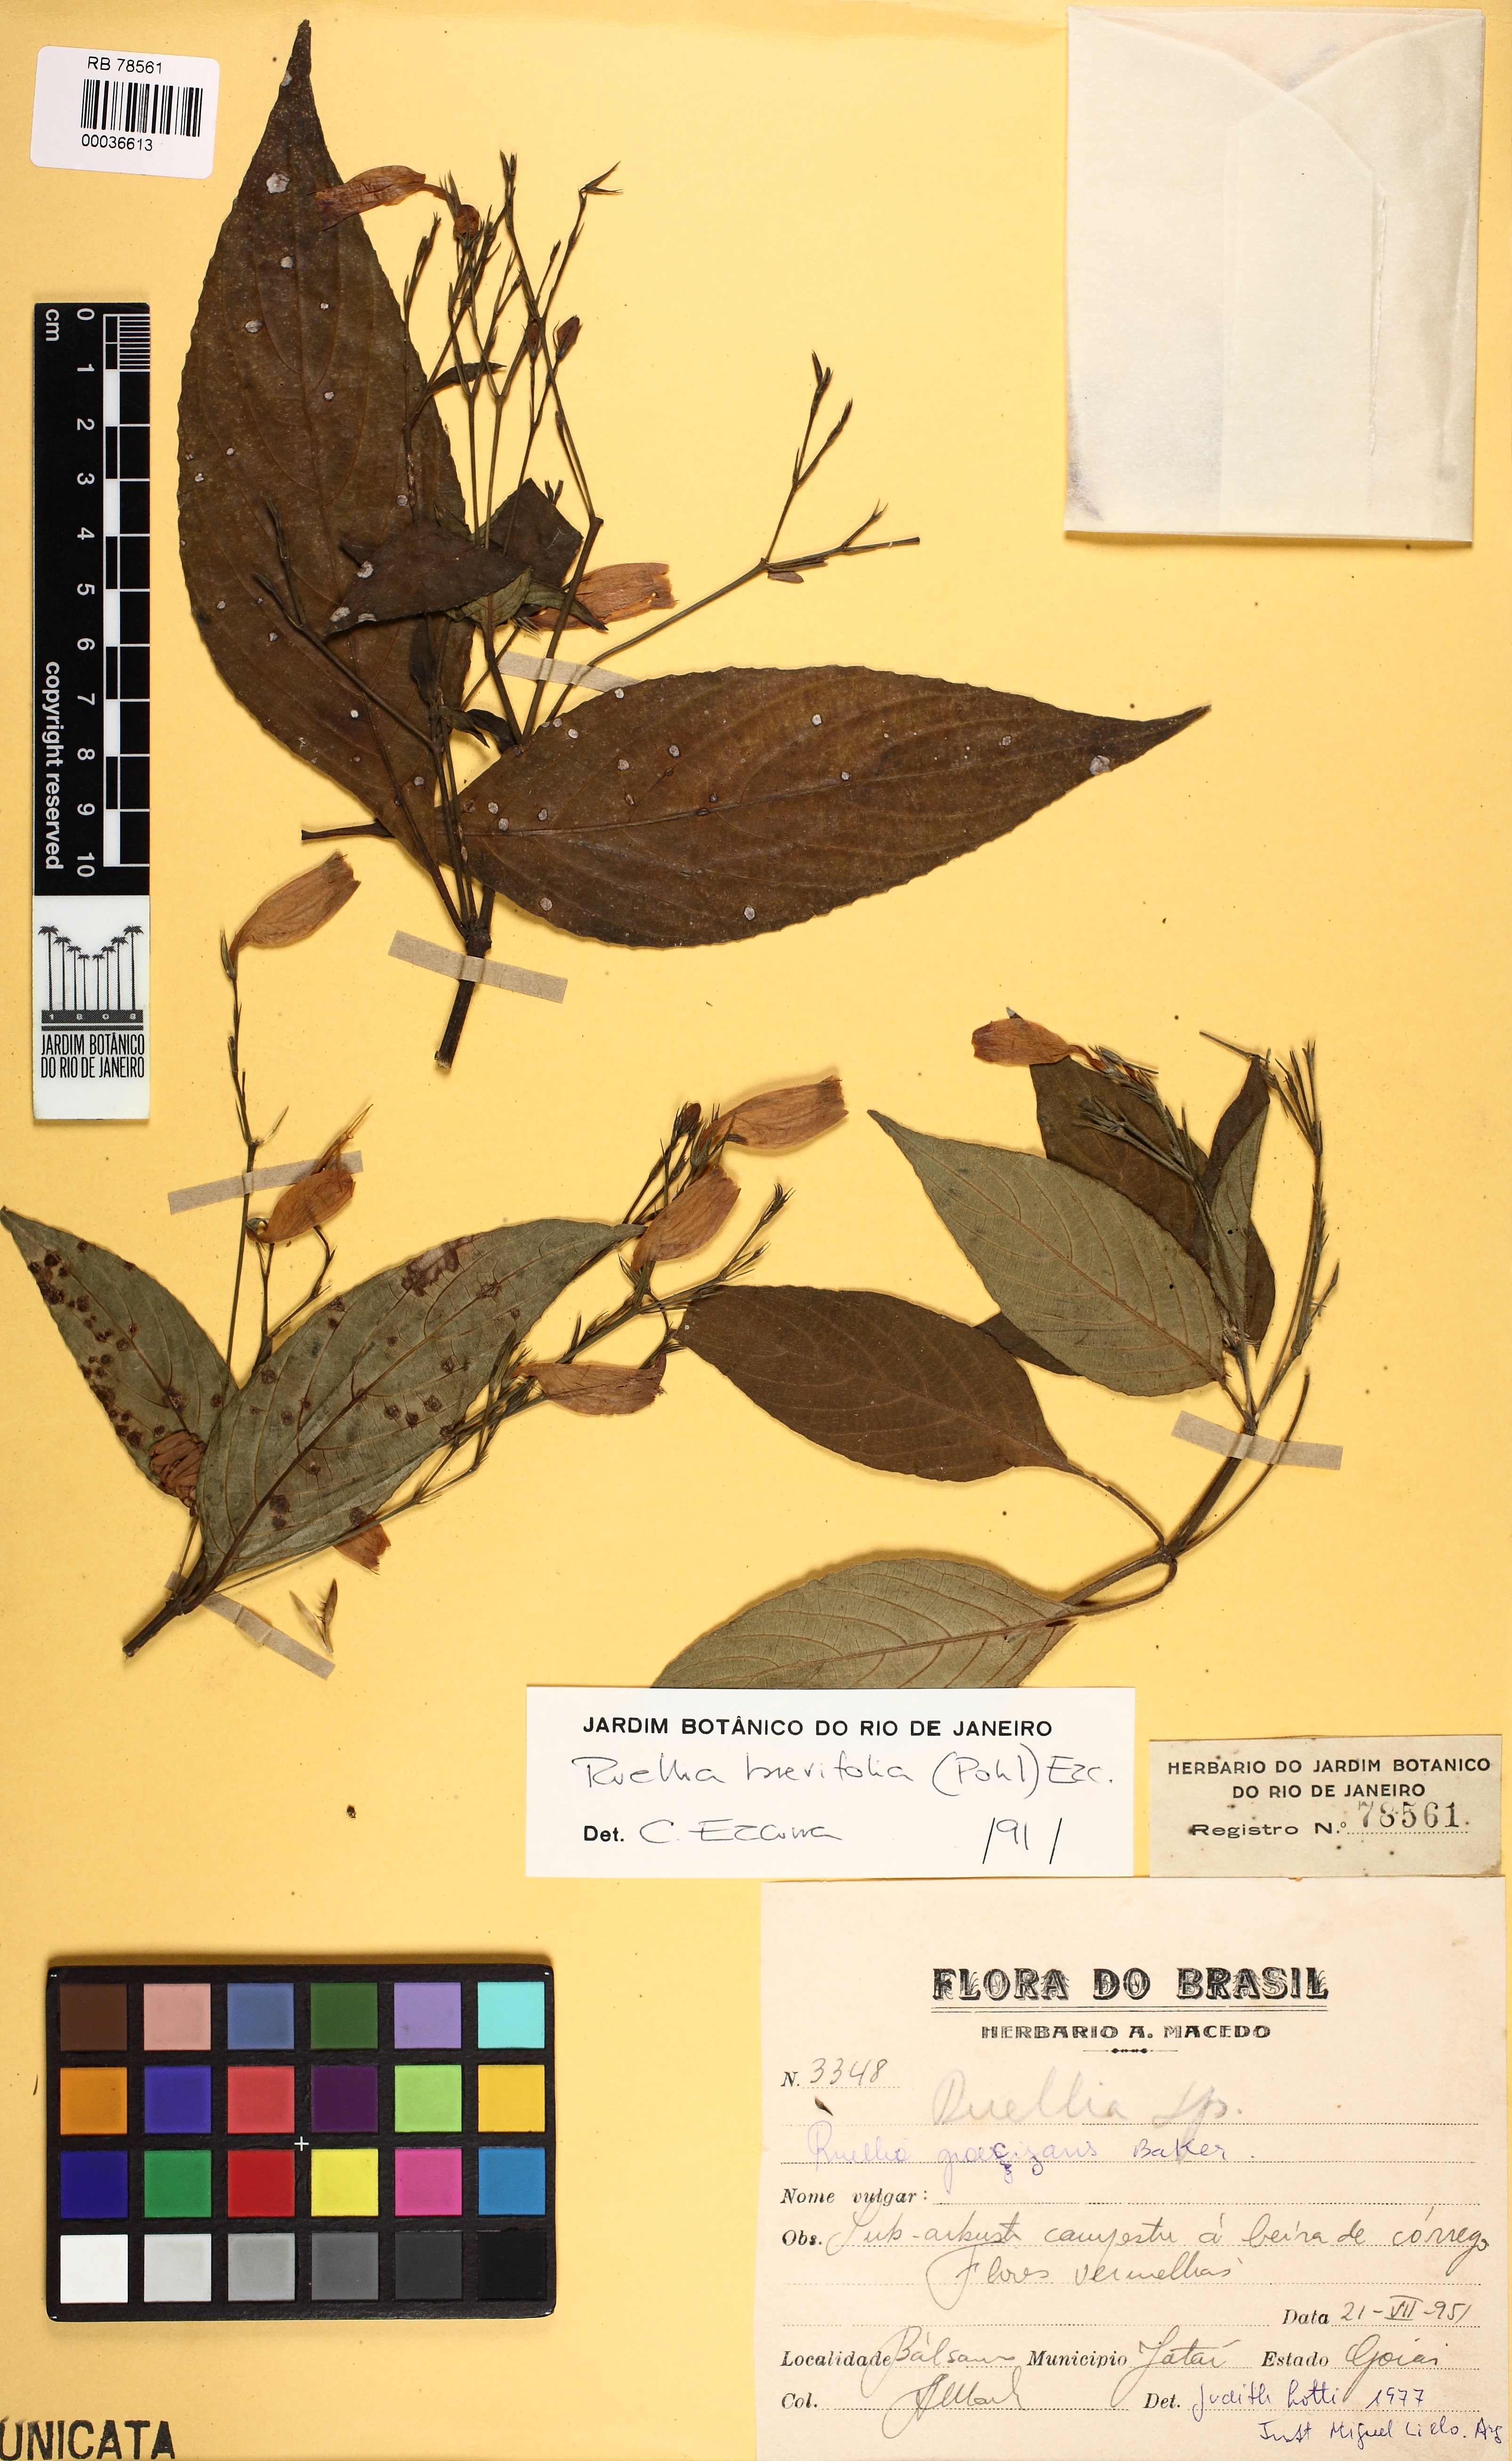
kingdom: Plantae
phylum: Tracheophyta
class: Magnoliopsida
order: Lamiales
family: Acanthaceae
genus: Ruellia
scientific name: Ruellia brevifolia
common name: Tropical wild petunia
